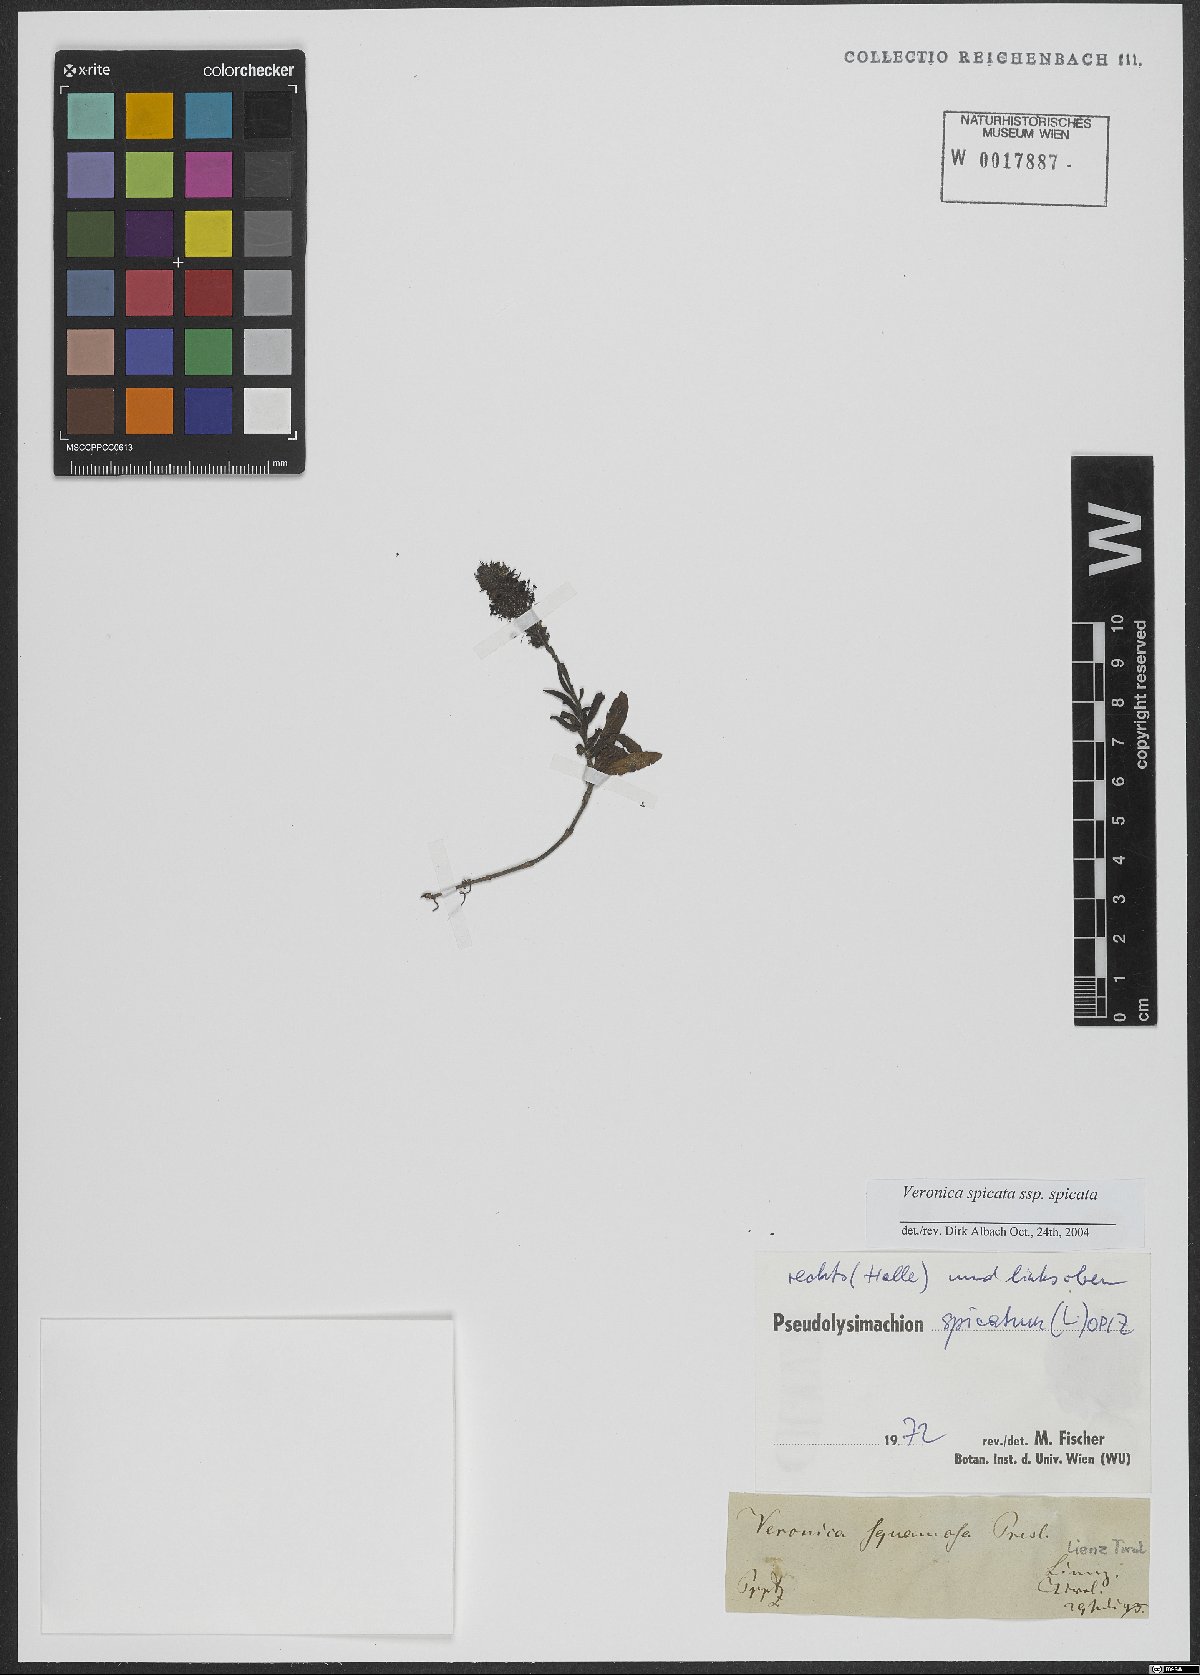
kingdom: Plantae
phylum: Tracheophyta
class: Magnoliopsida
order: Lamiales
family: Plantaginaceae
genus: Veronica
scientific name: Veronica spicata
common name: Spiked speedwell
